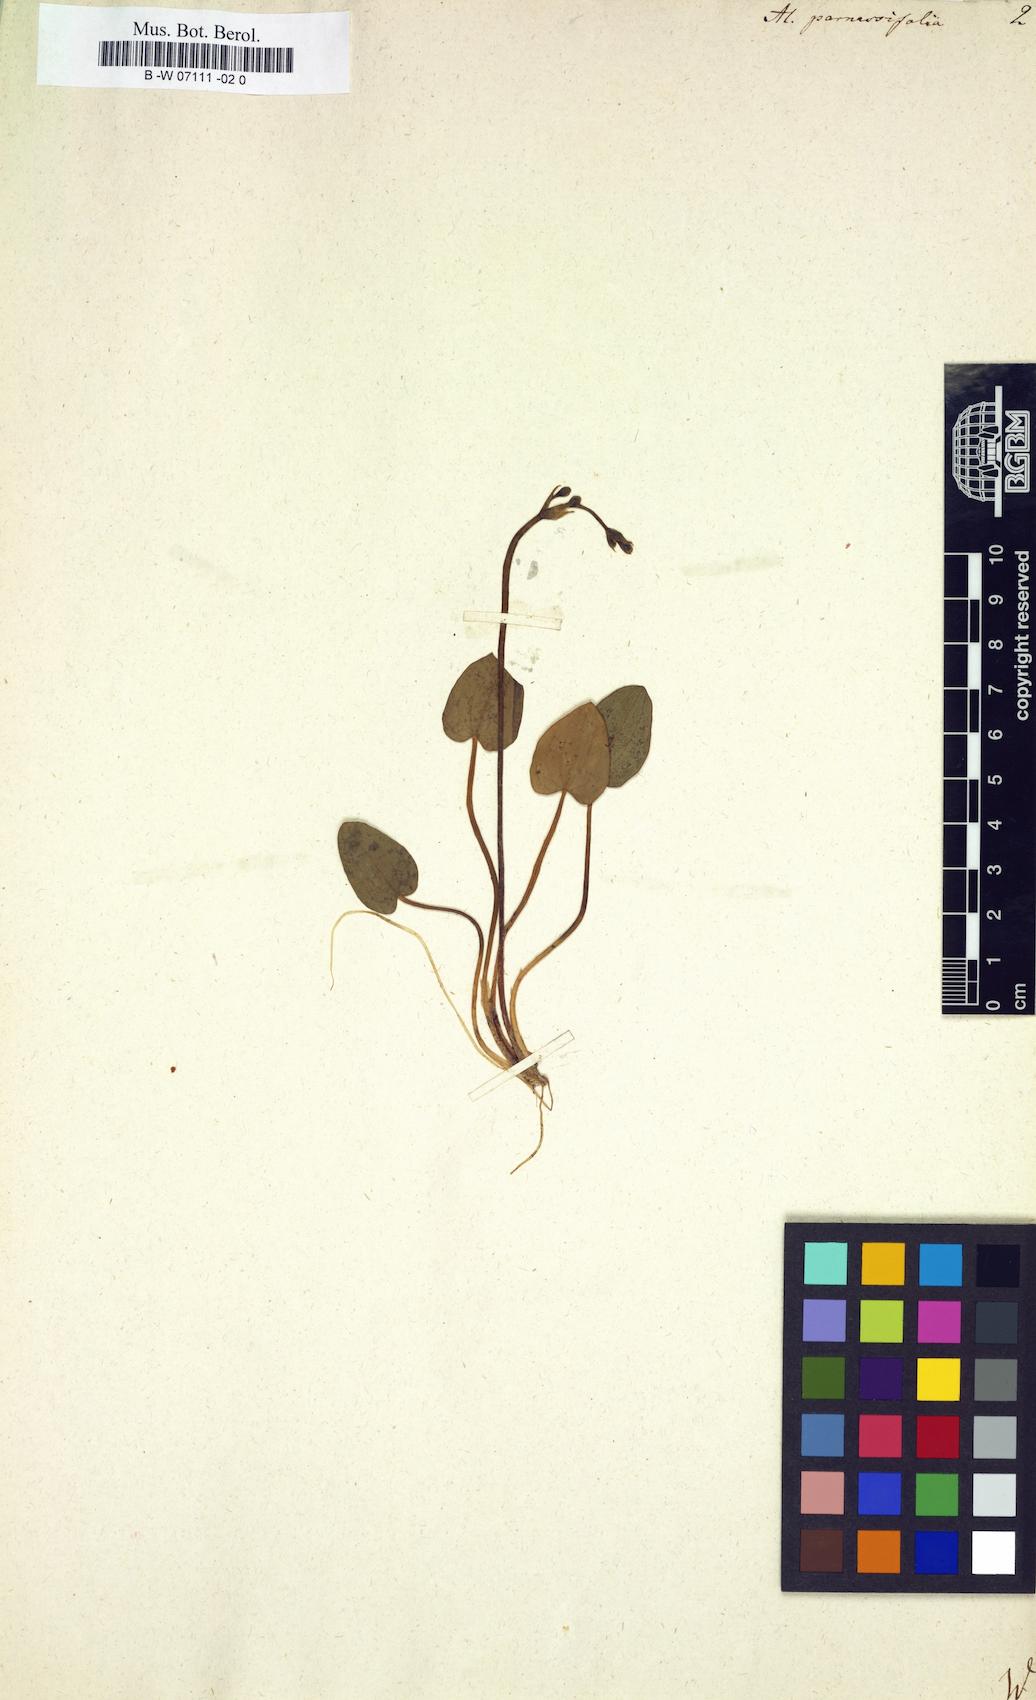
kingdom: Plantae
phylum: Tracheophyta
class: Liliopsida
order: Alismatales
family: Alismataceae
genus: Alisma
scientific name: Alisma parnassifolium
